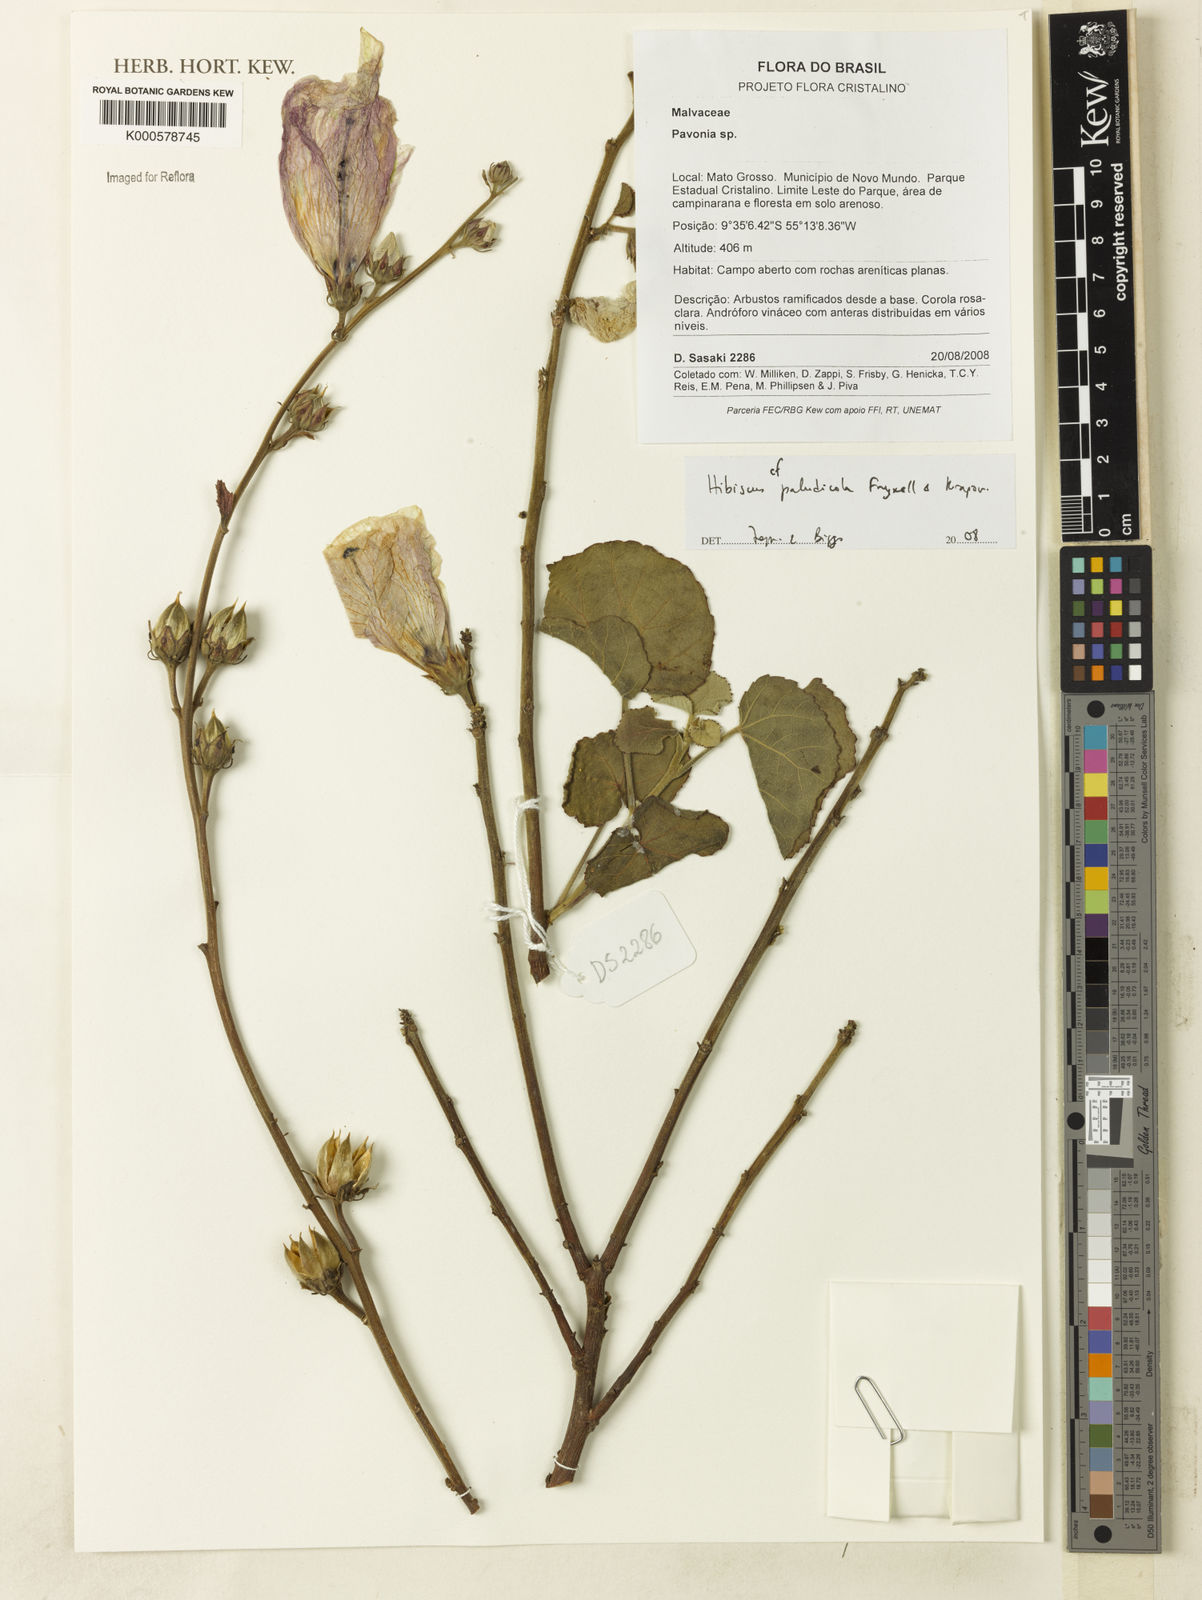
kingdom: Plantae
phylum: Tracheophyta
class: Magnoliopsida
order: Malvales
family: Malvaceae
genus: Hibiscus
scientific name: Hibiscus paludicola
